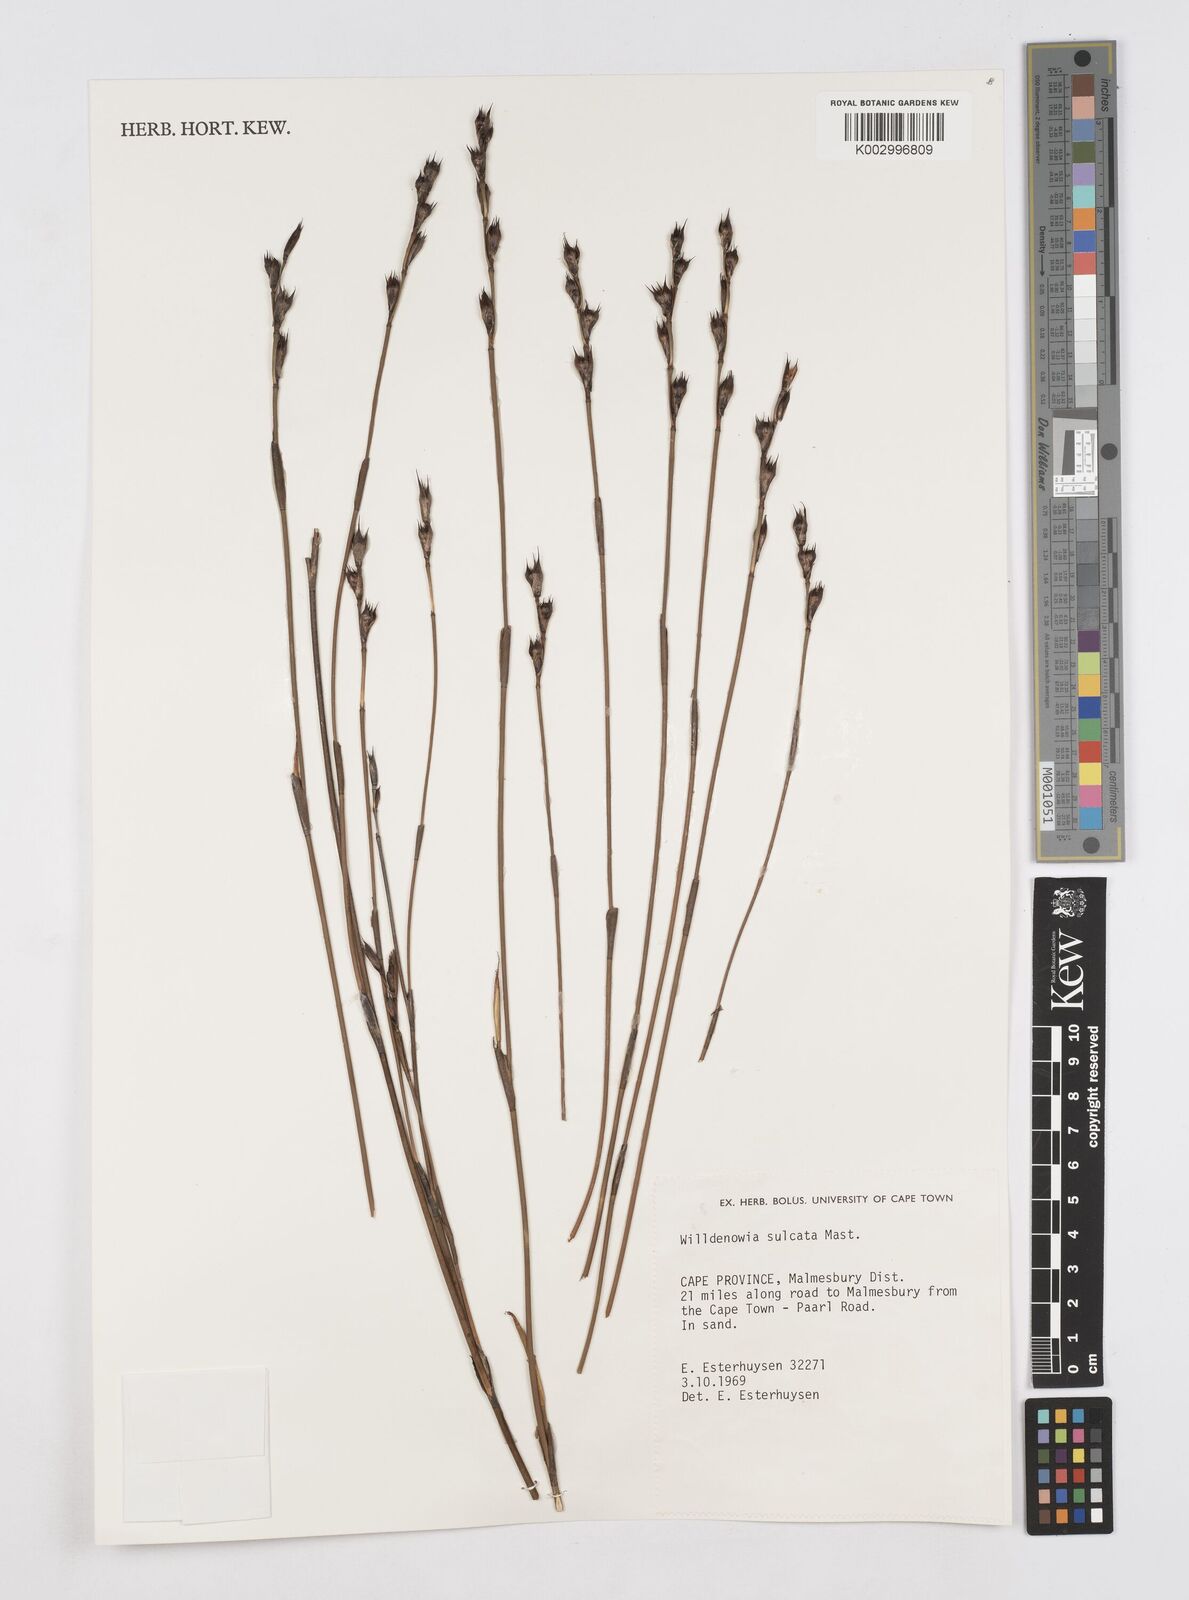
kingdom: Plantae
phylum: Tracheophyta
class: Liliopsida
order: Poales
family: Restionaceae
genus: Willdenowia
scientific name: Willdenowia sulcata
